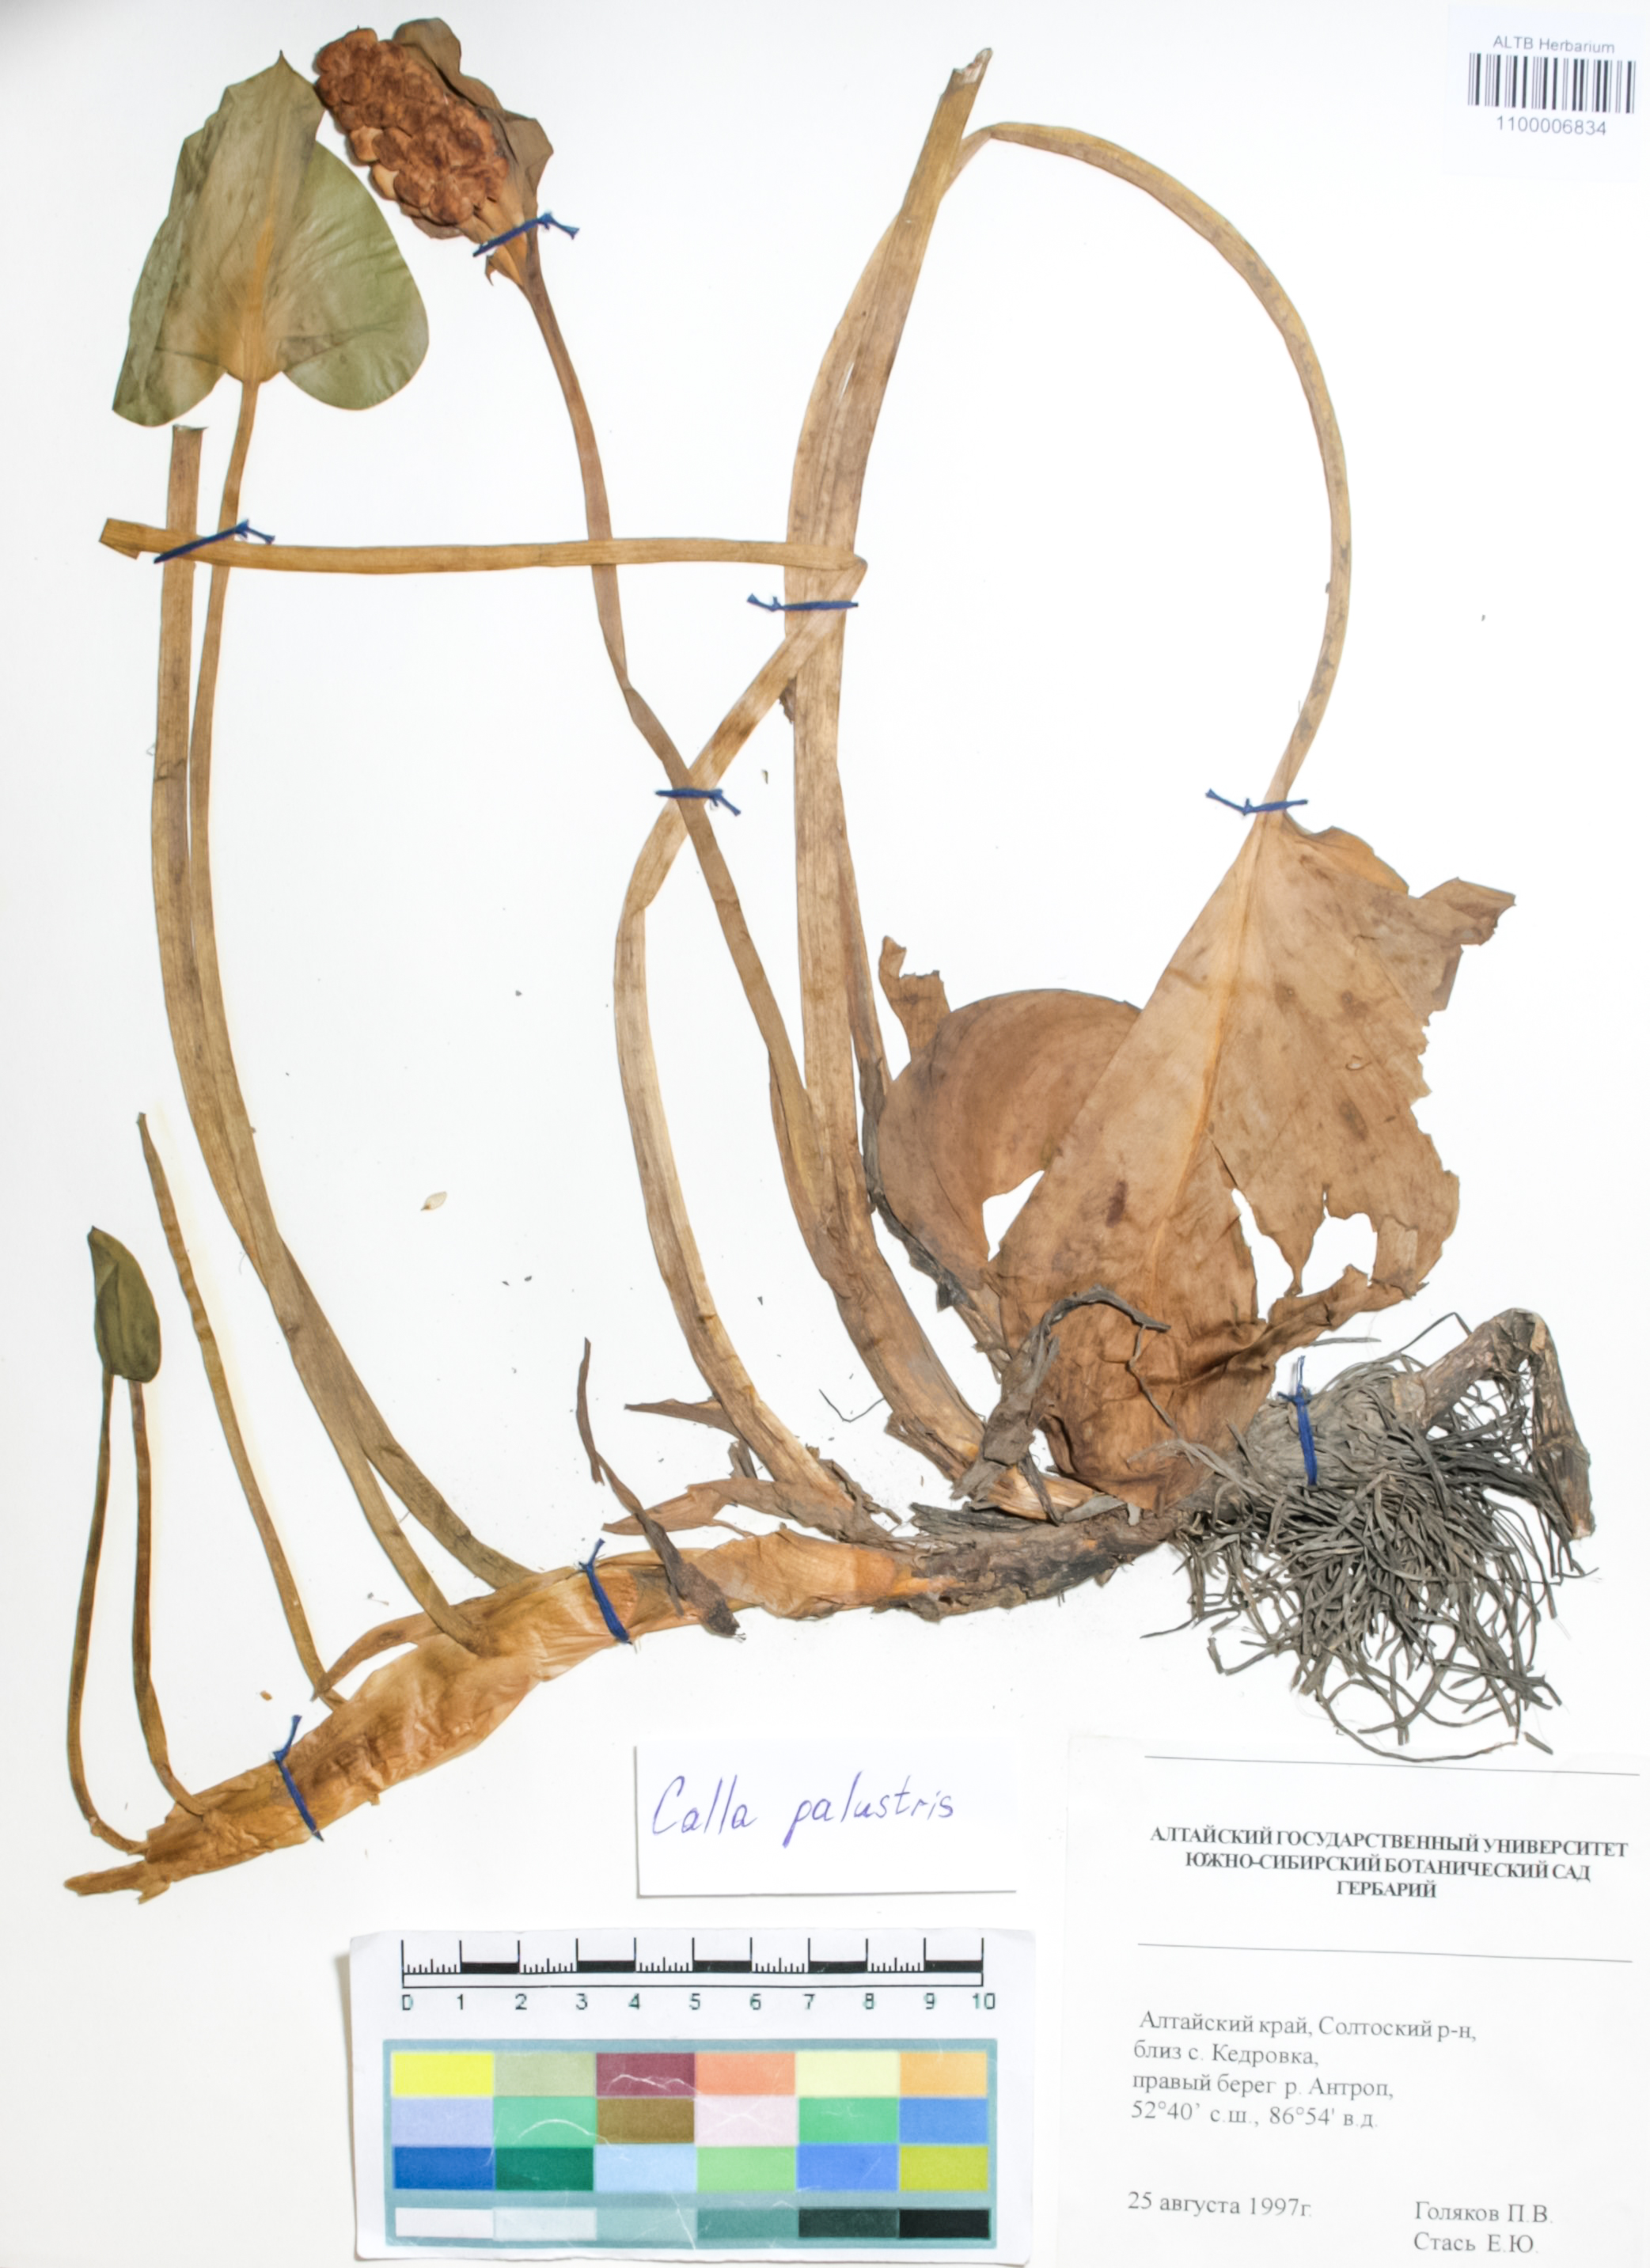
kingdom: Plantae
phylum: Tracheophyta
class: Liliopsida
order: Alismatales
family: Araceae
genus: Calla
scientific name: Calla palustris
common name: Bog arum
